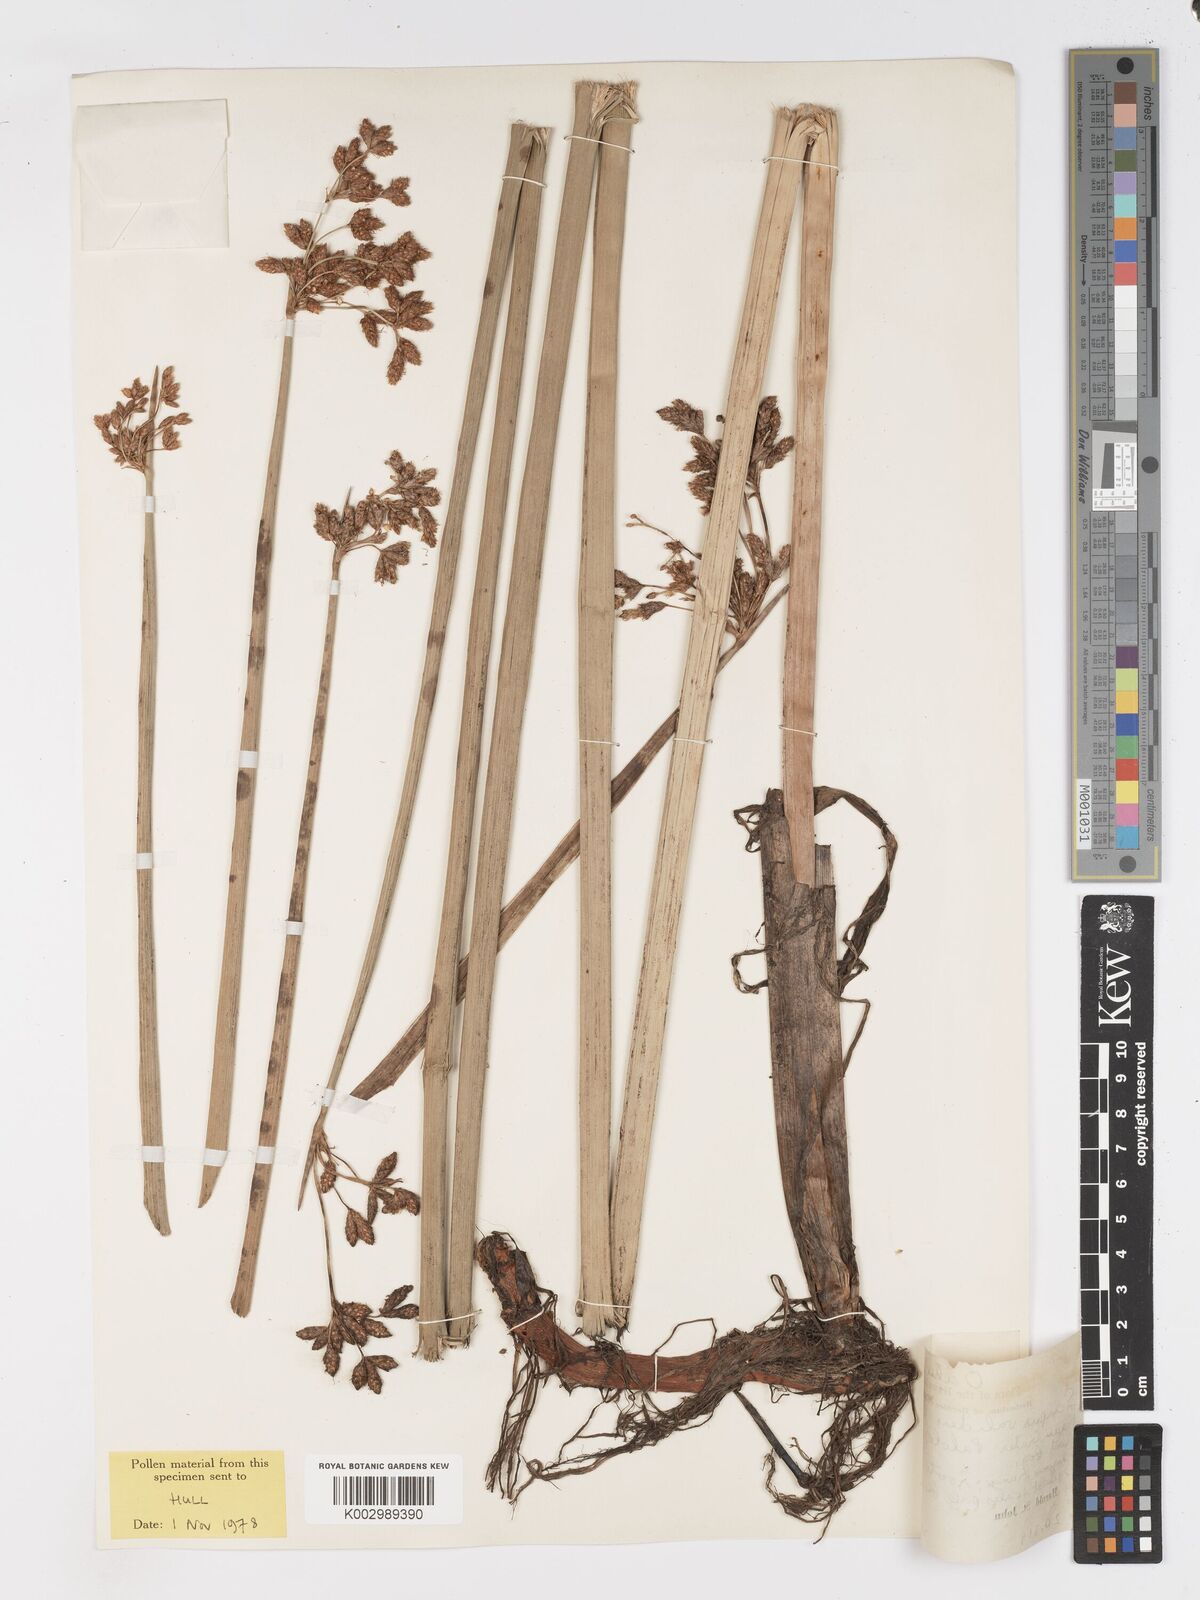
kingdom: Plantae
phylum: Tracheophyta
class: Liliopsida
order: Poales
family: Cyperaceae
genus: Schoenoplectus
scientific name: Schoenoplectus californicus
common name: California bulrush
